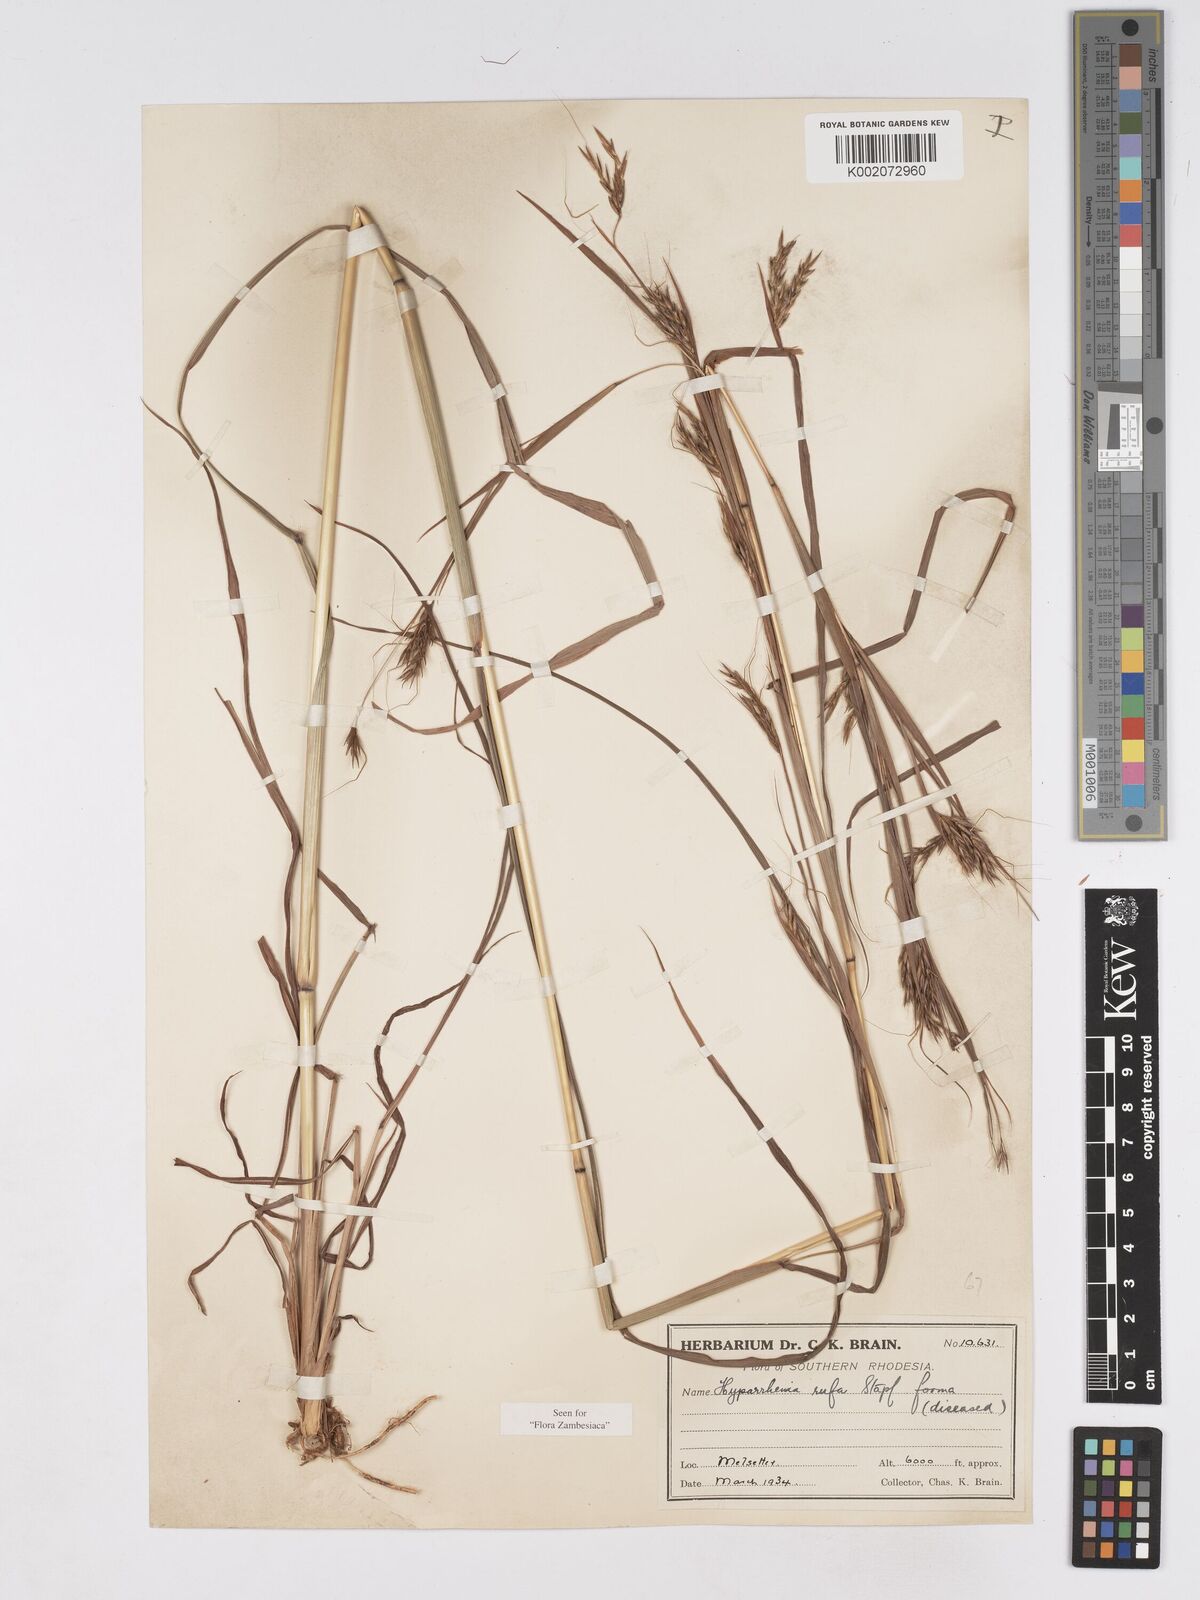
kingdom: Plantae
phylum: Tracheophyta
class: Liliopsida
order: Poales
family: Poaceae
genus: Hyparrhenia
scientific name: Hyparrhenia rufa
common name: Jaraguagrass
